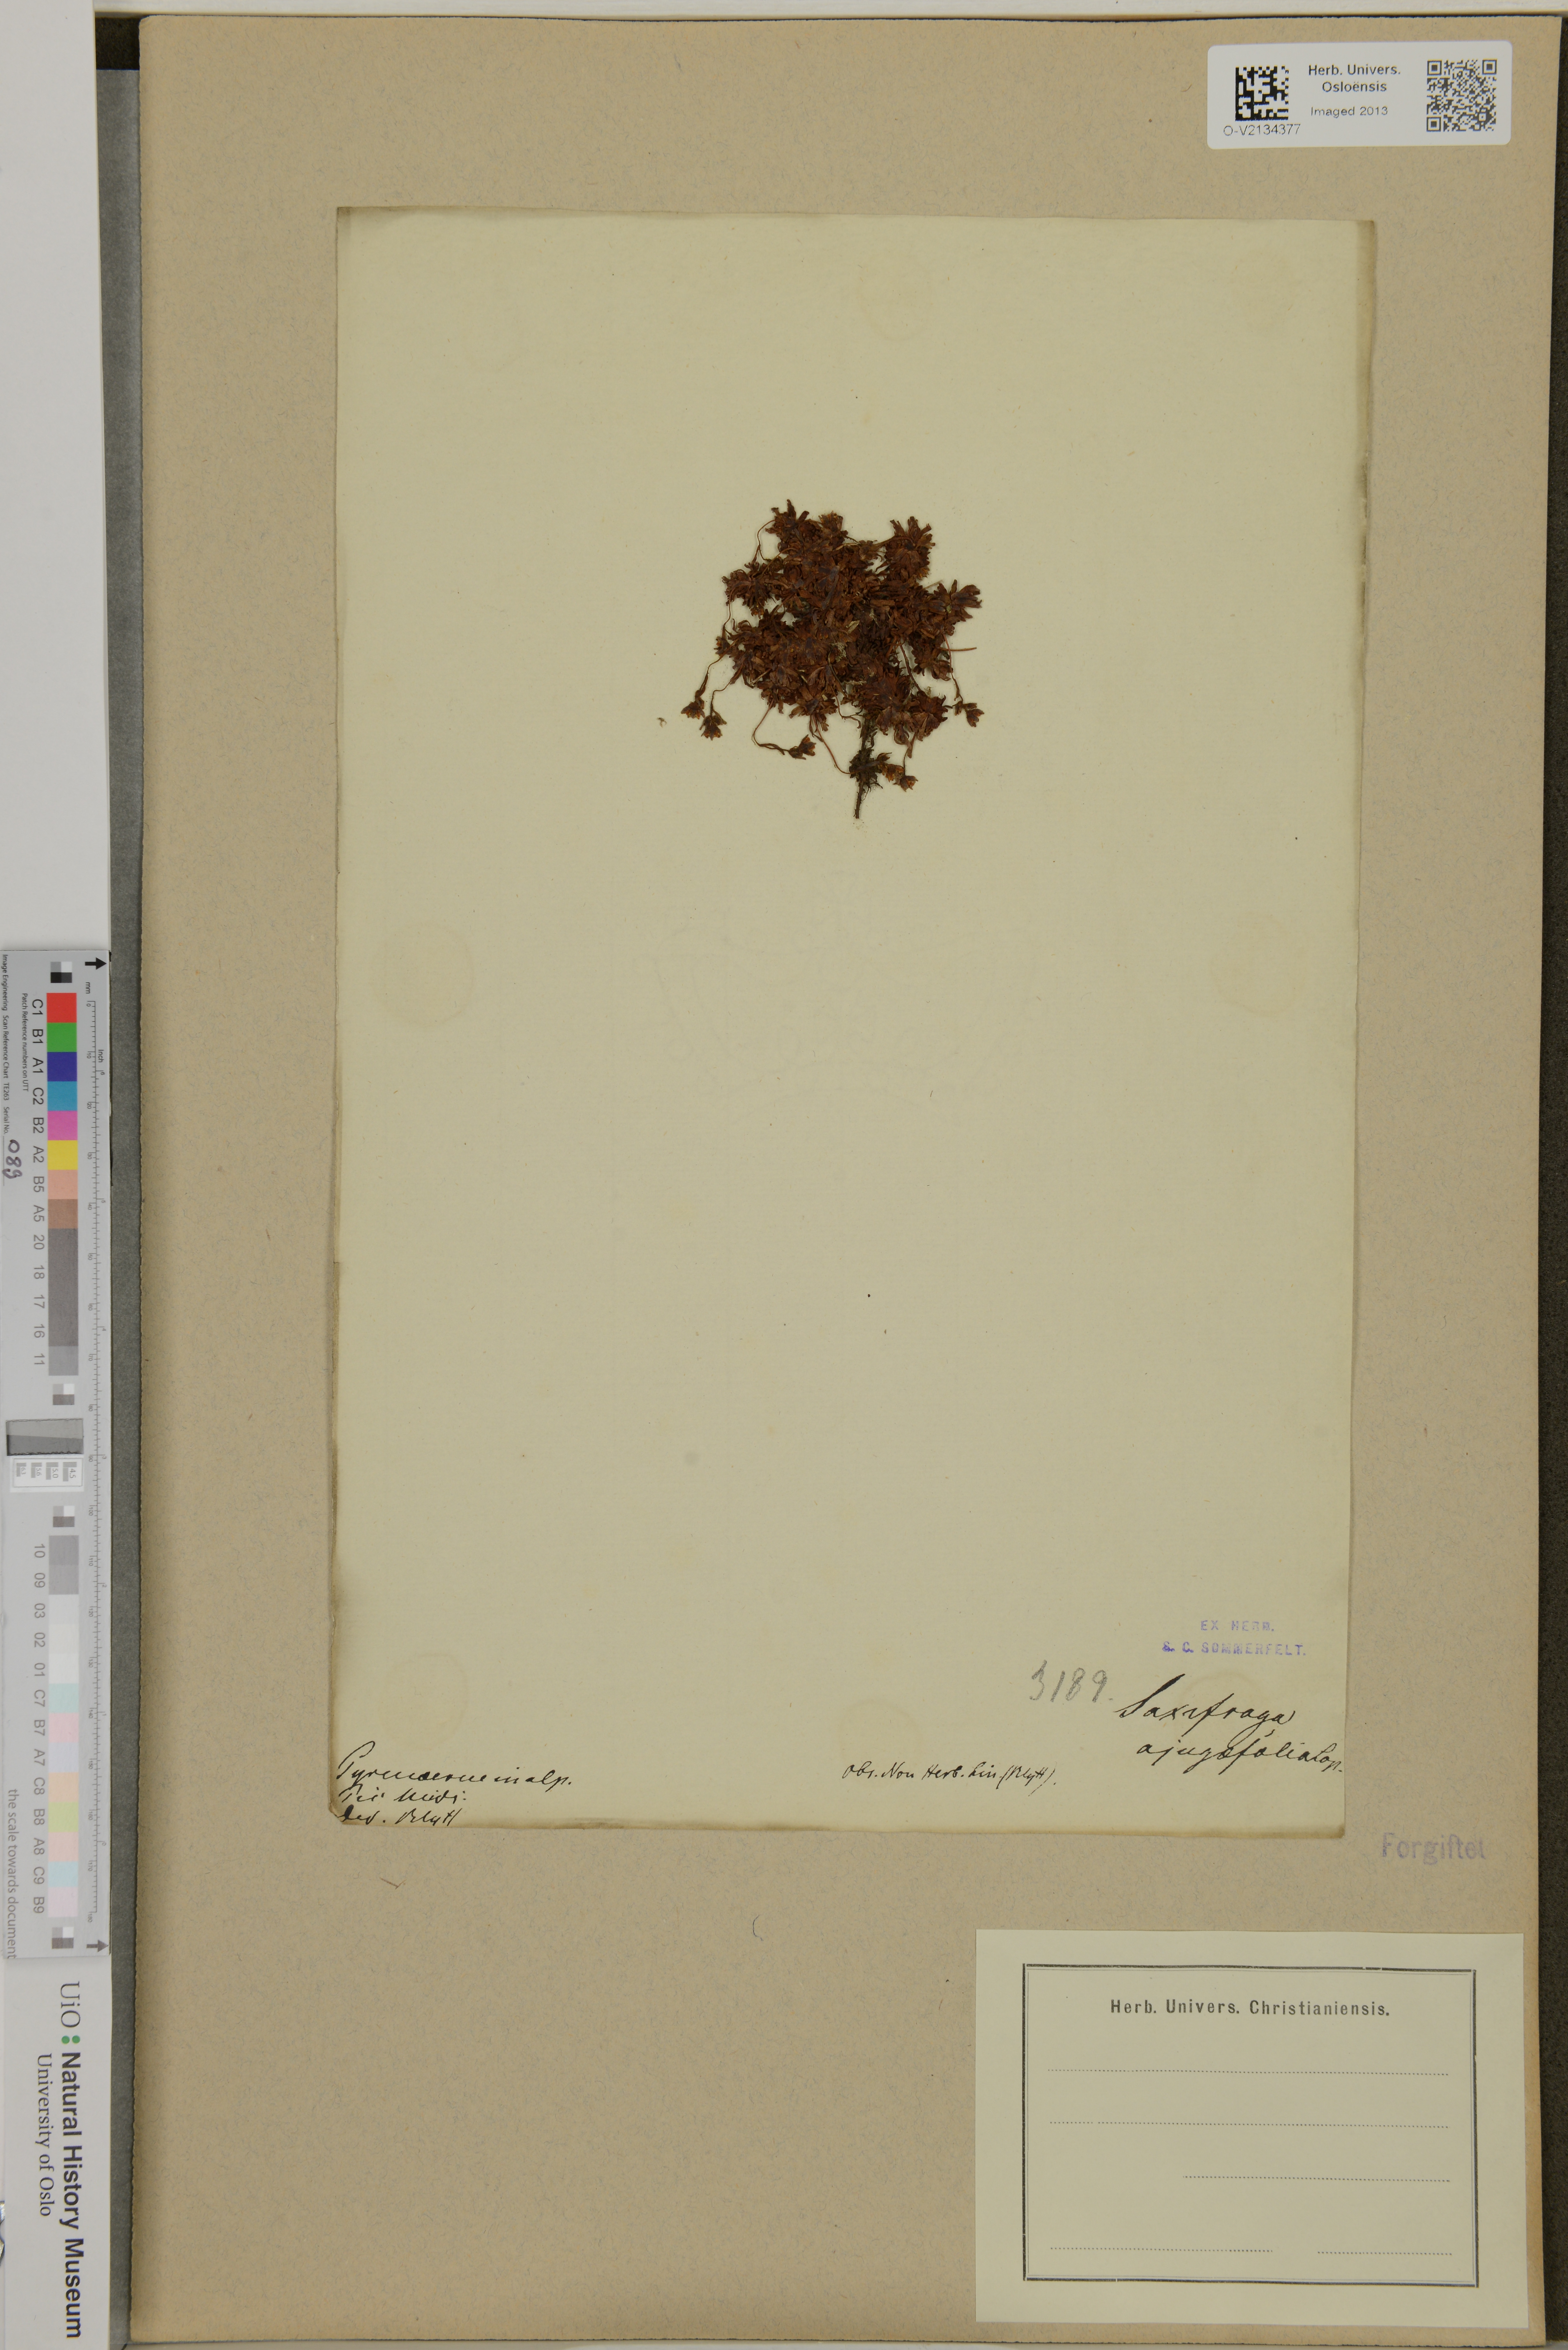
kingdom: Plantae
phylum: Tracheophyta
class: Magnoliopsida
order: Saxifragales
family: Saxifragaceae
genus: Saxifraga
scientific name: Saxifraga
